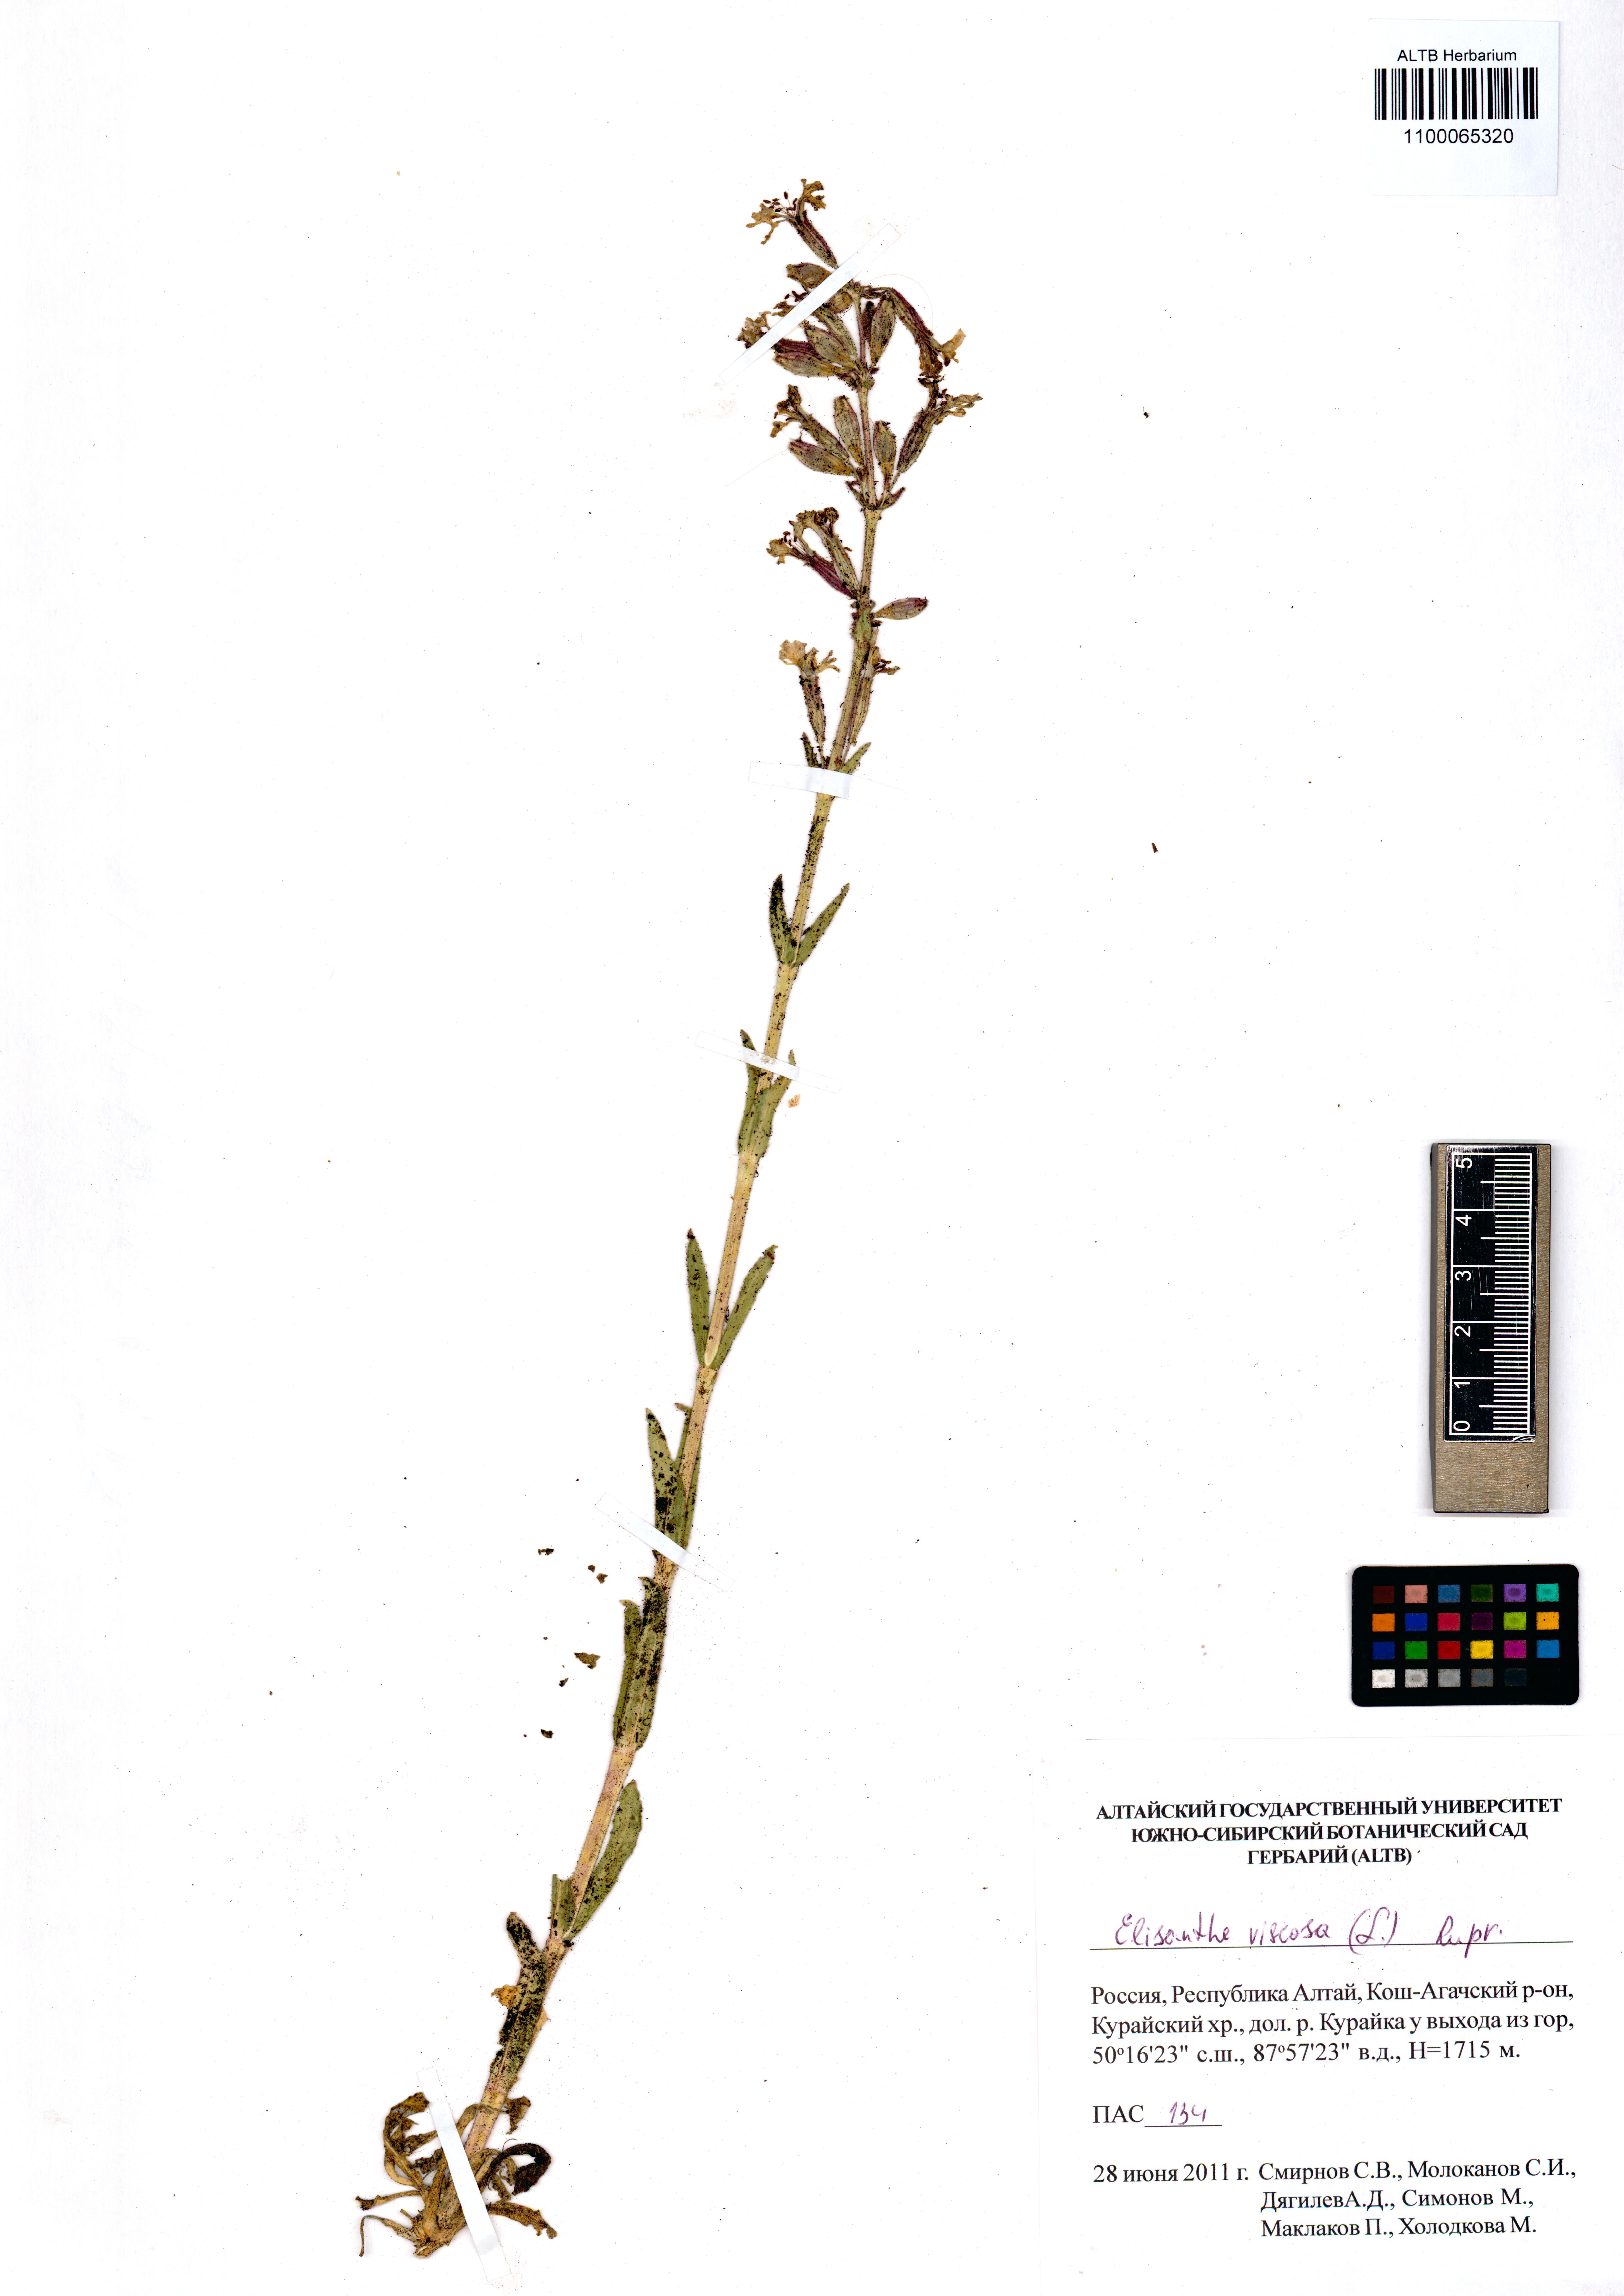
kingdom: Plantae
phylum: Tracheophyta
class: Magnoliopsida
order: Caryophyllales
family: Caryophyllaceae
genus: Silene
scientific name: Silene viscosa
